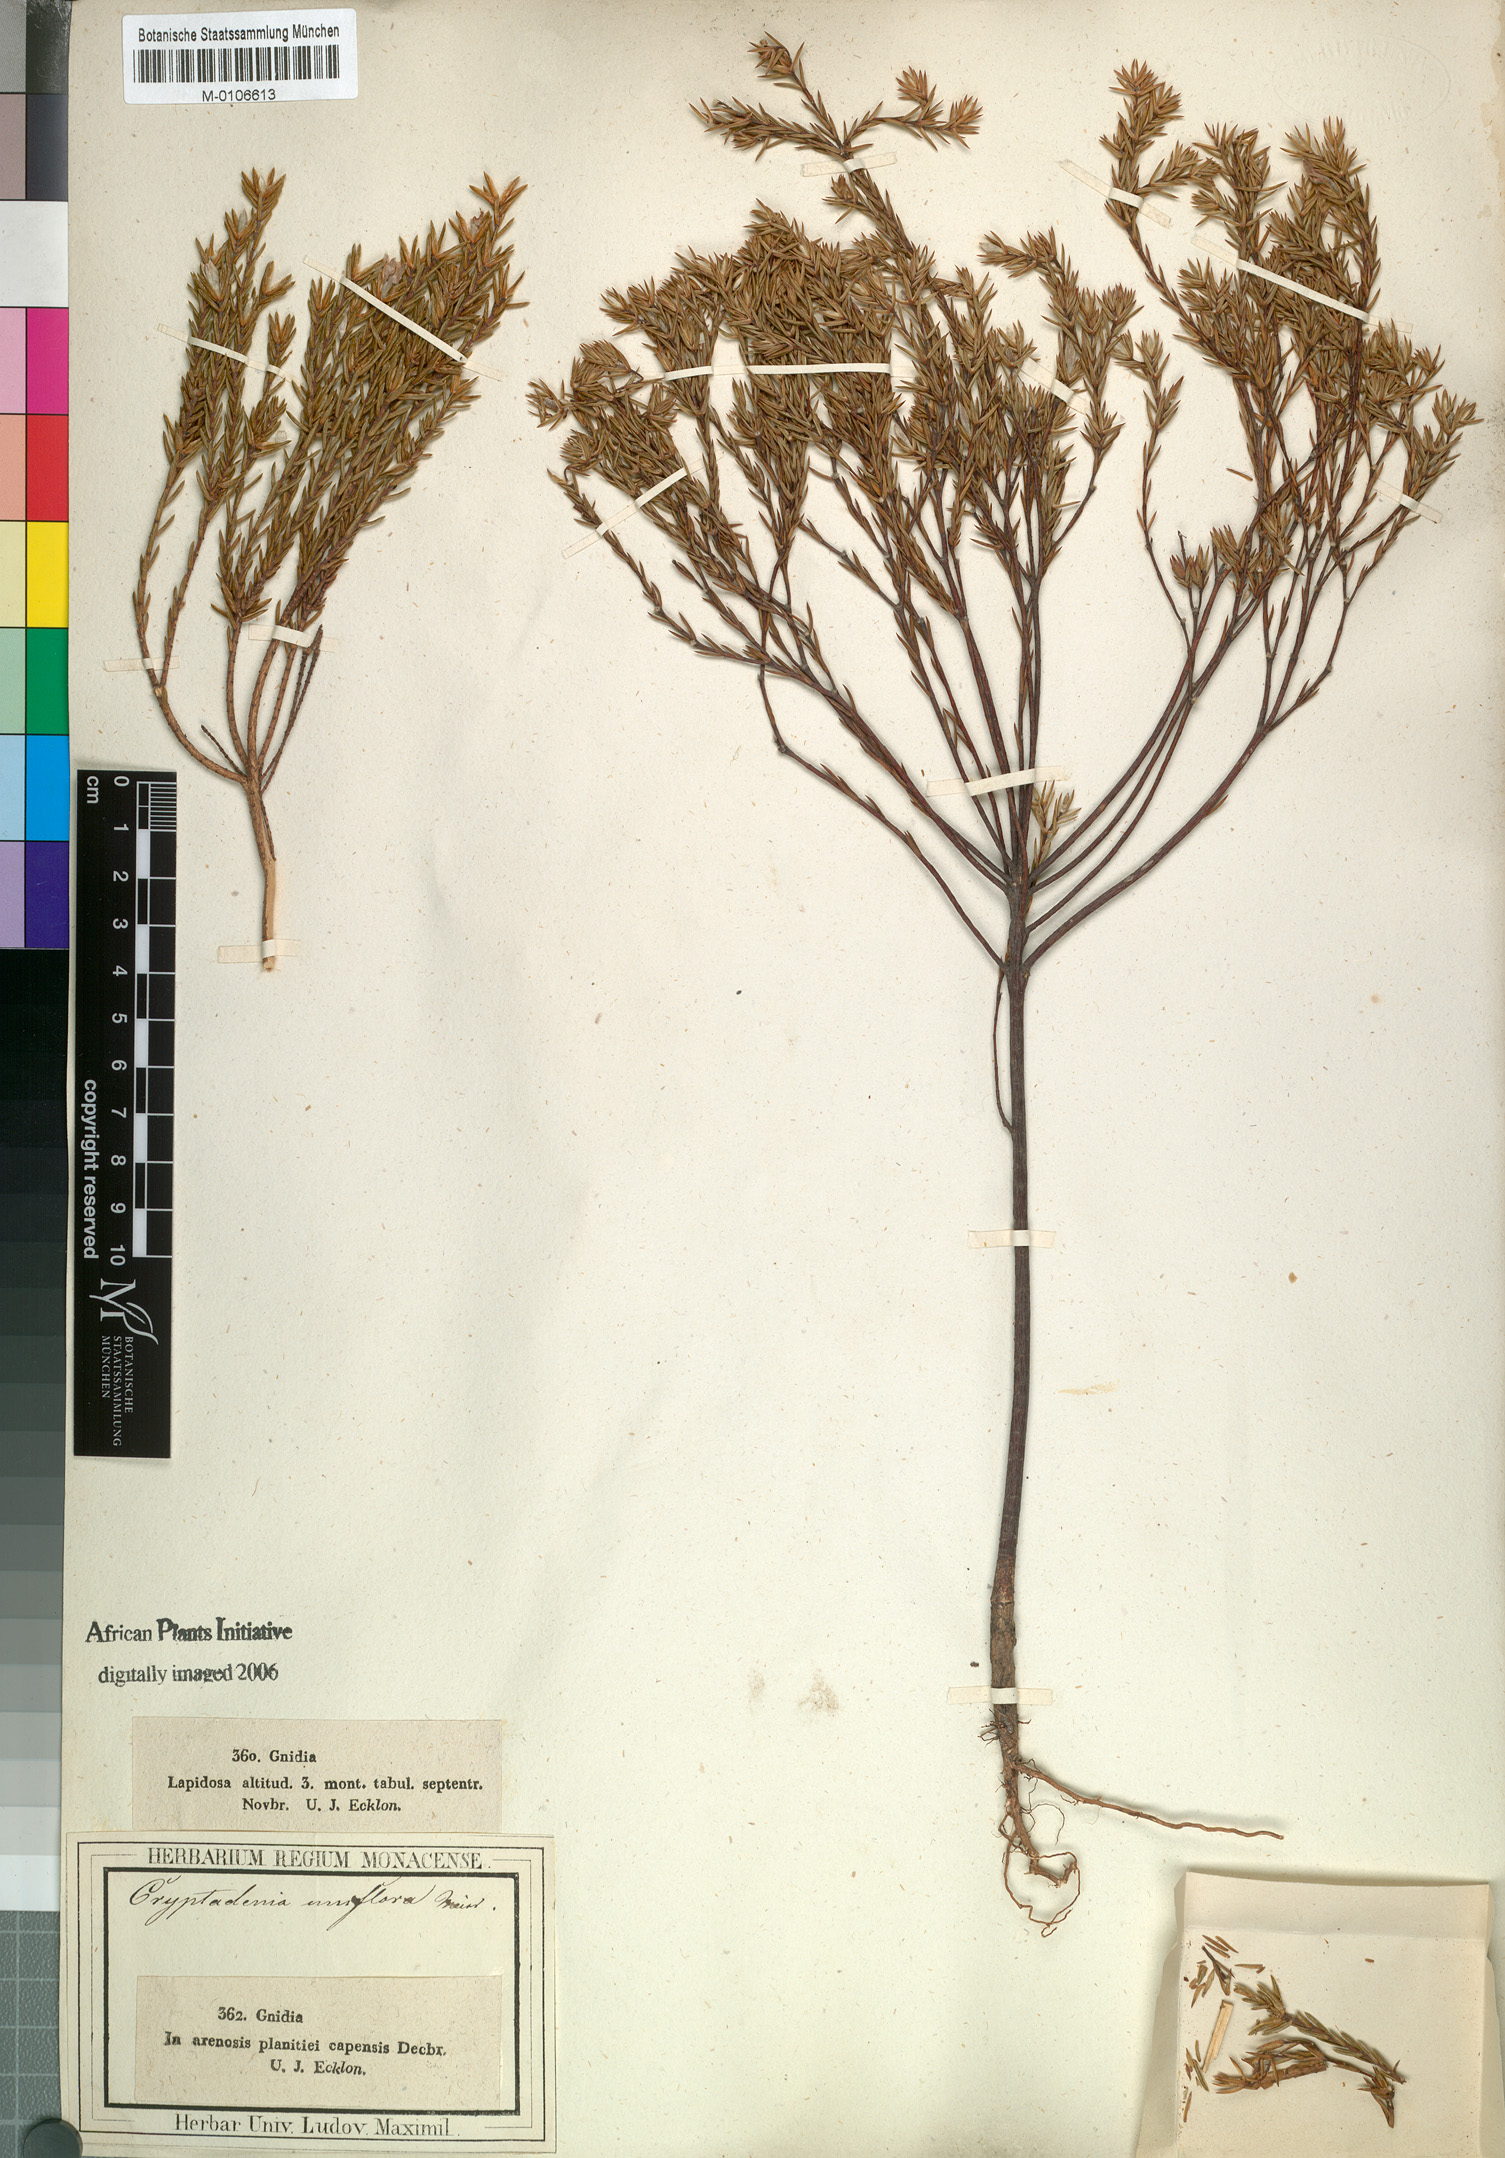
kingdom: Plantae
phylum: Tracheophyta
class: Magnoliopsida
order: Malvales
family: Thymelaeaceae
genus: Lachnaea
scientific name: Lachnaea uniflora
